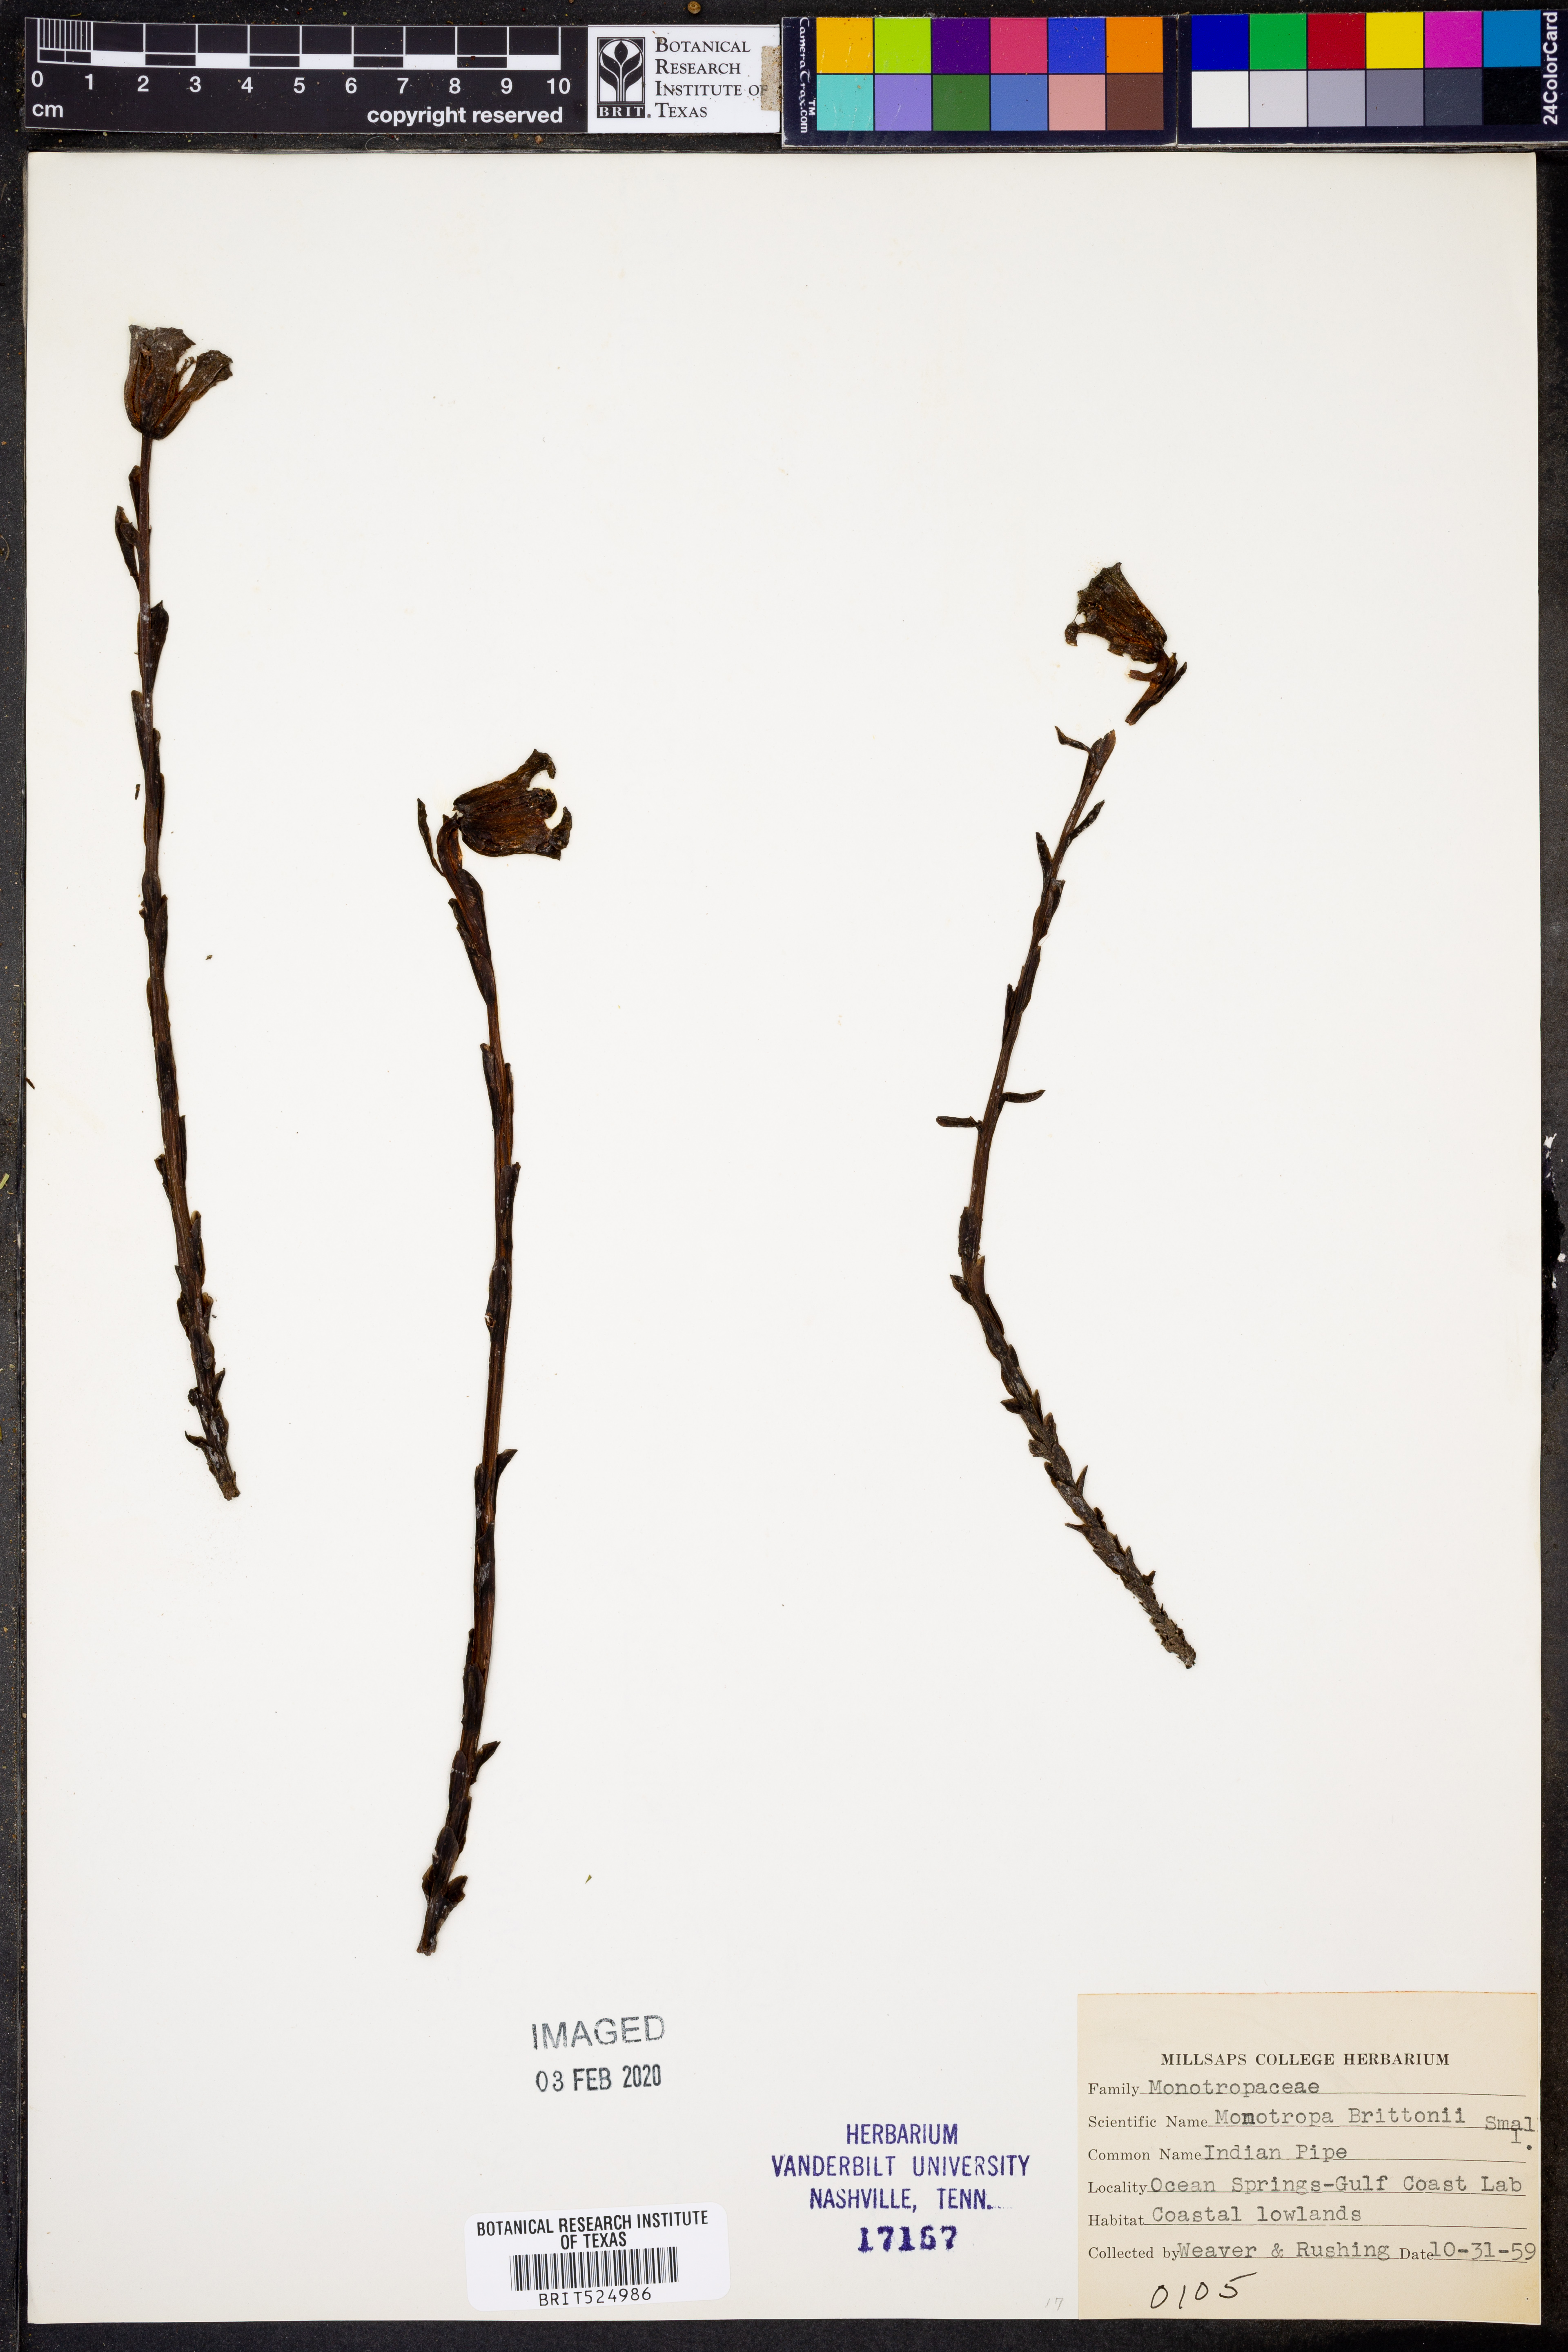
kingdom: Plantae
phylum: Tracheophyta
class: Magnoliopsida
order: Ericales
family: Ericaceae
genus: Monotropa
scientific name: Monotropa uniflora
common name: Convulsion root
